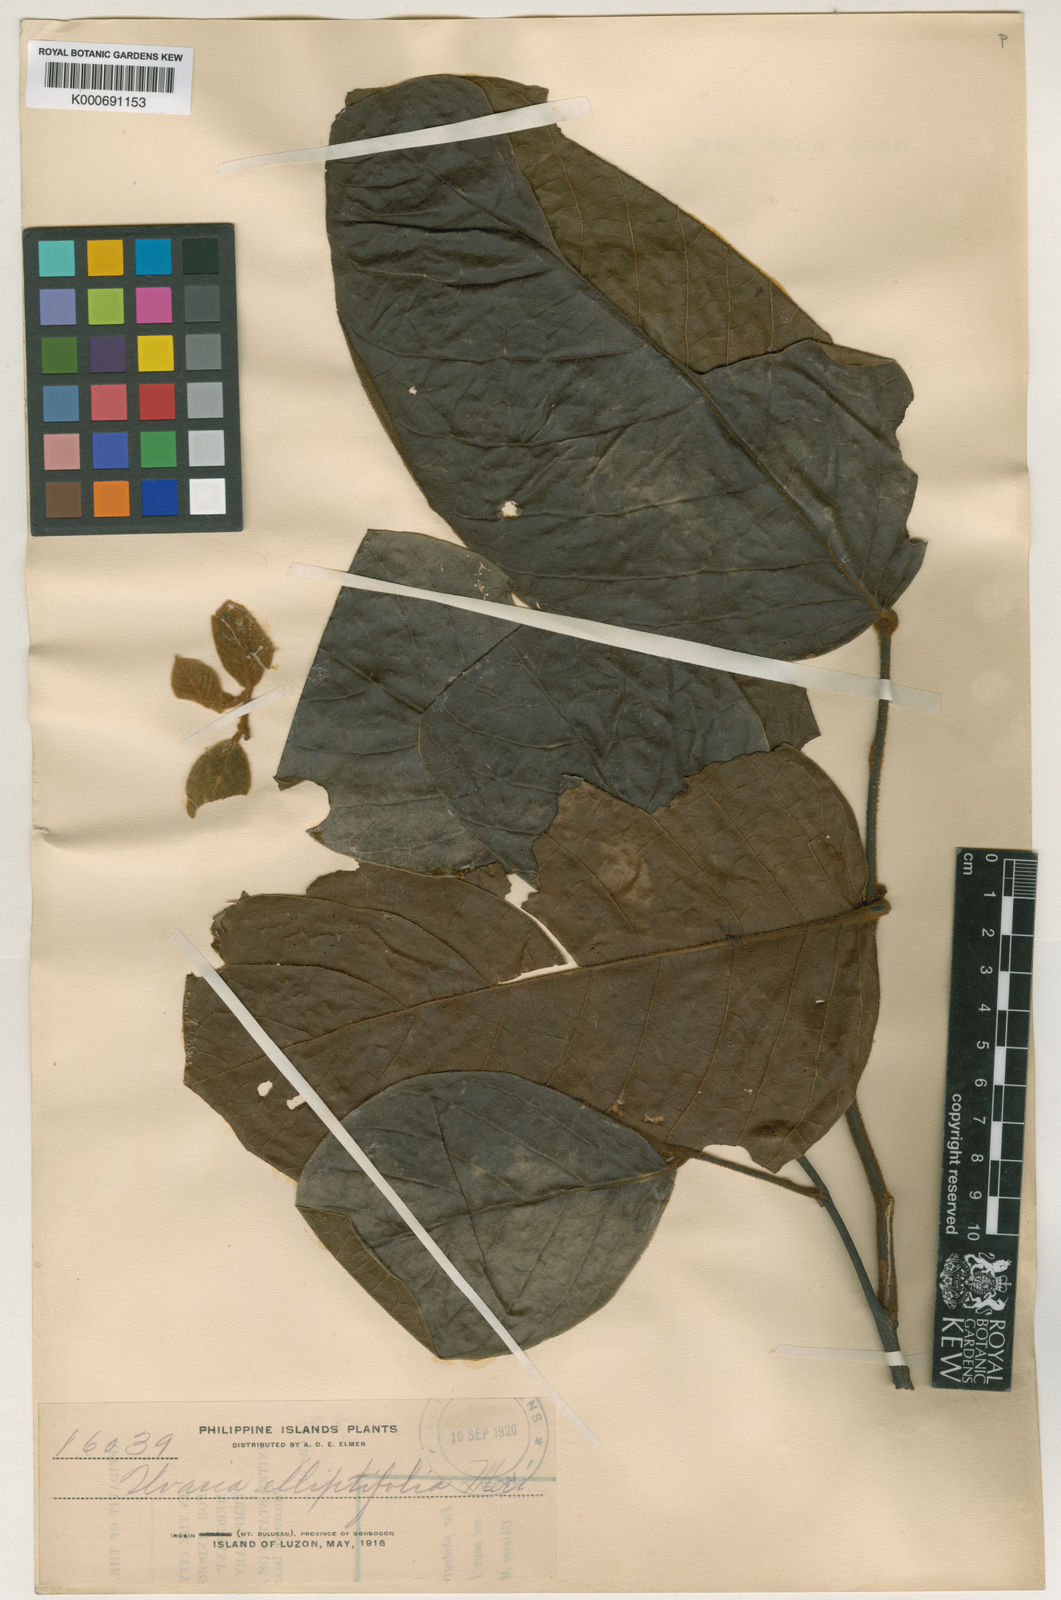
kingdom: Plantae
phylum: Tracheophyta
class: Magnoliopsida
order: Magnoliales
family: Annonaceae
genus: Uvaria
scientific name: Uvaria elliptifolia
